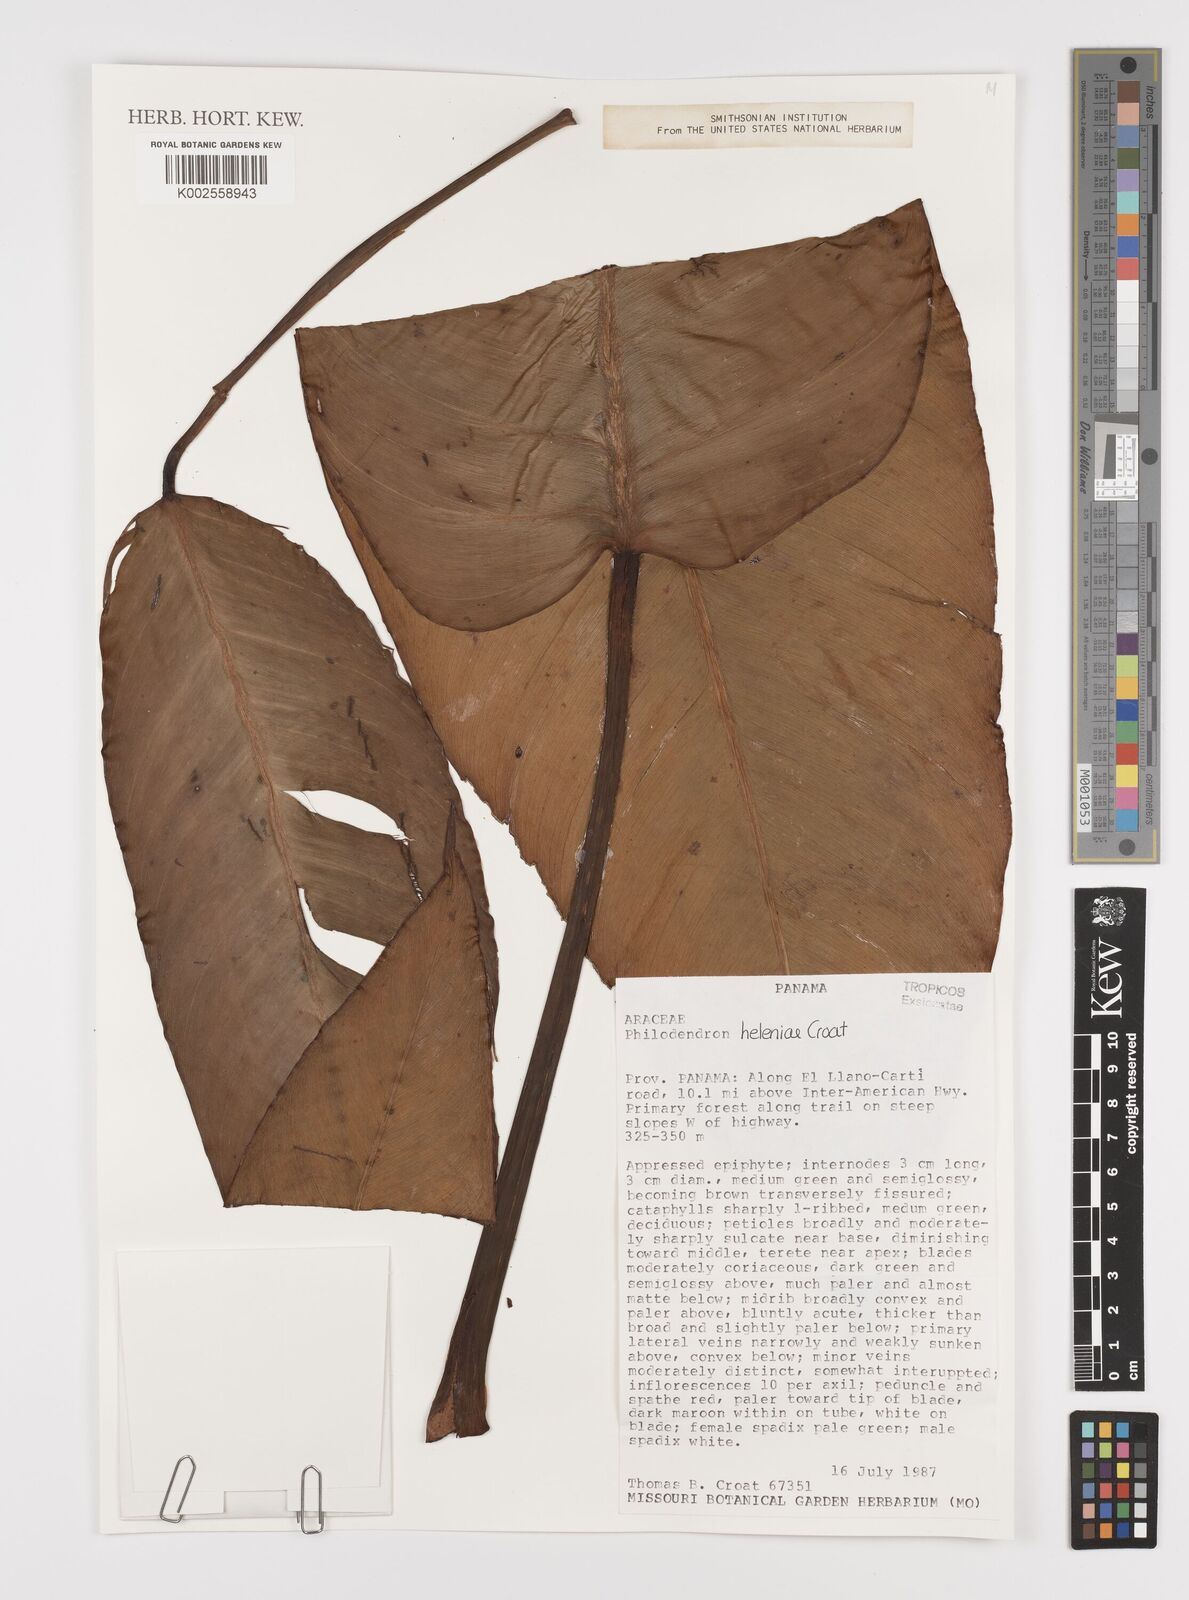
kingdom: Plantae
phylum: Tracheophyta
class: Liliopsida
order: Alismatales
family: Araceae
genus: Philodendron
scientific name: Philodendron heleniae
